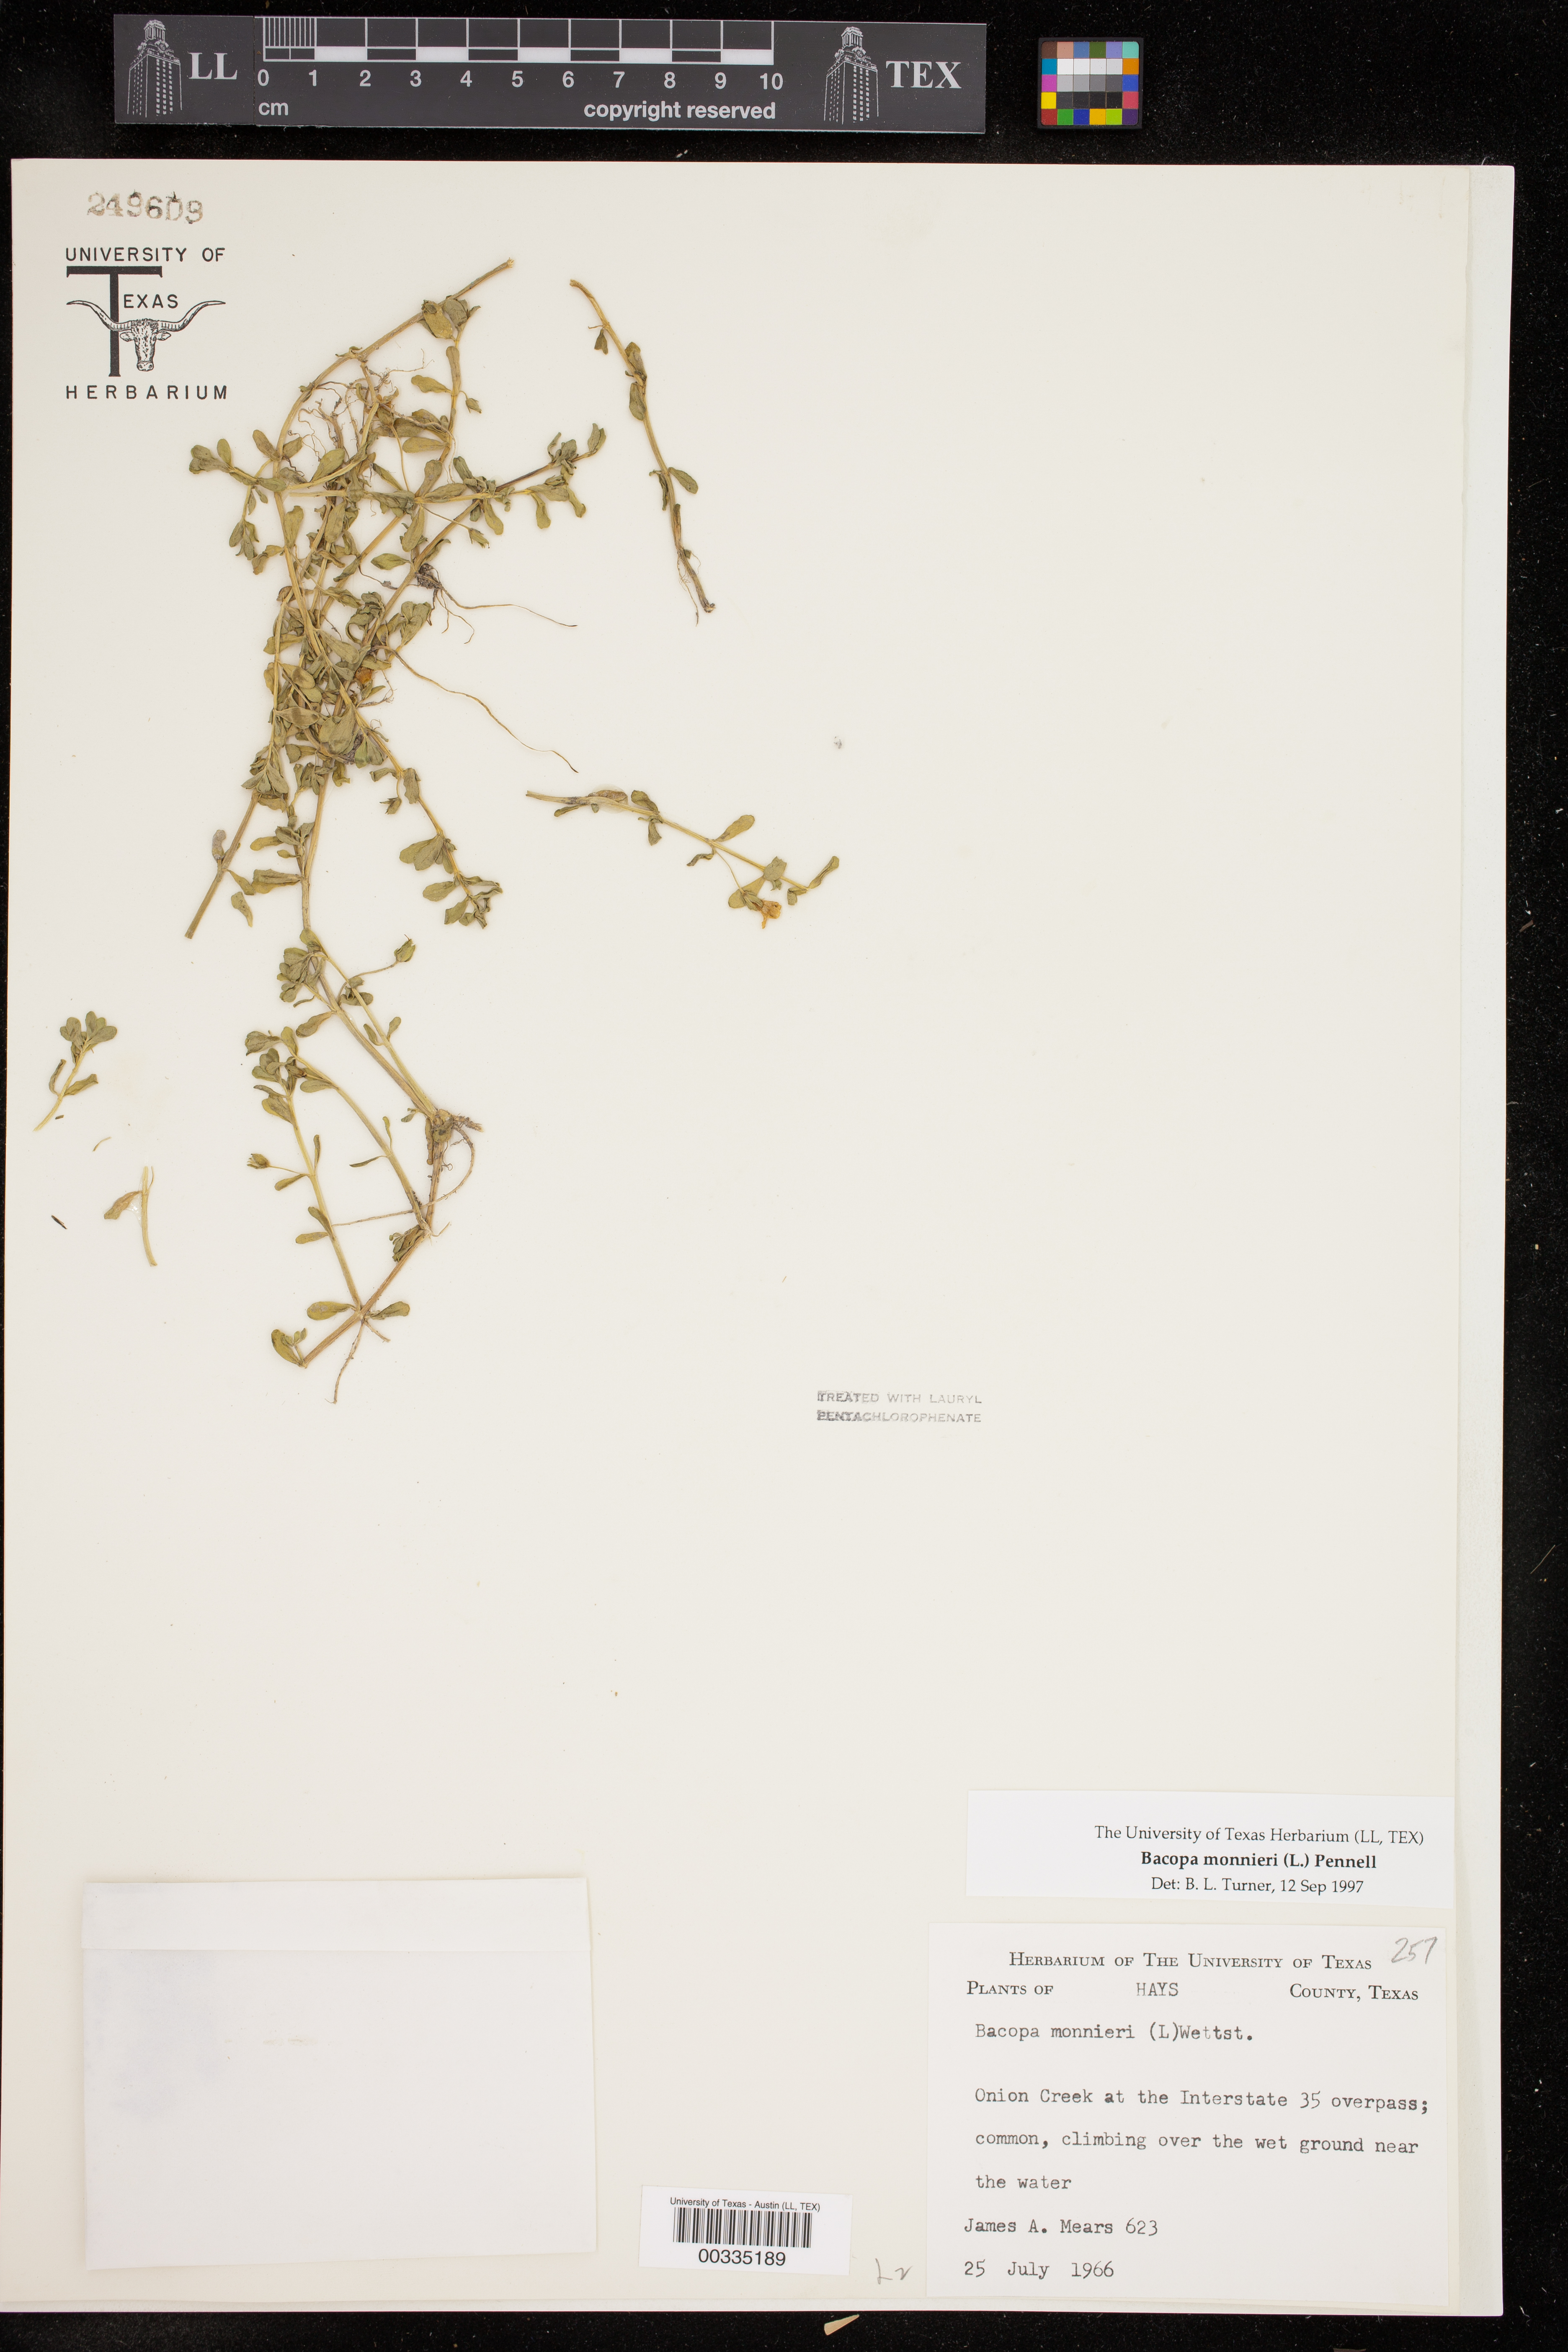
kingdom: Plantae
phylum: Tracheophyta
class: Magnoliopsida
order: Lamiales
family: Plantaginaceae
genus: Bacopa
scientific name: Bacopa monnieri
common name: Indian-pennywort
